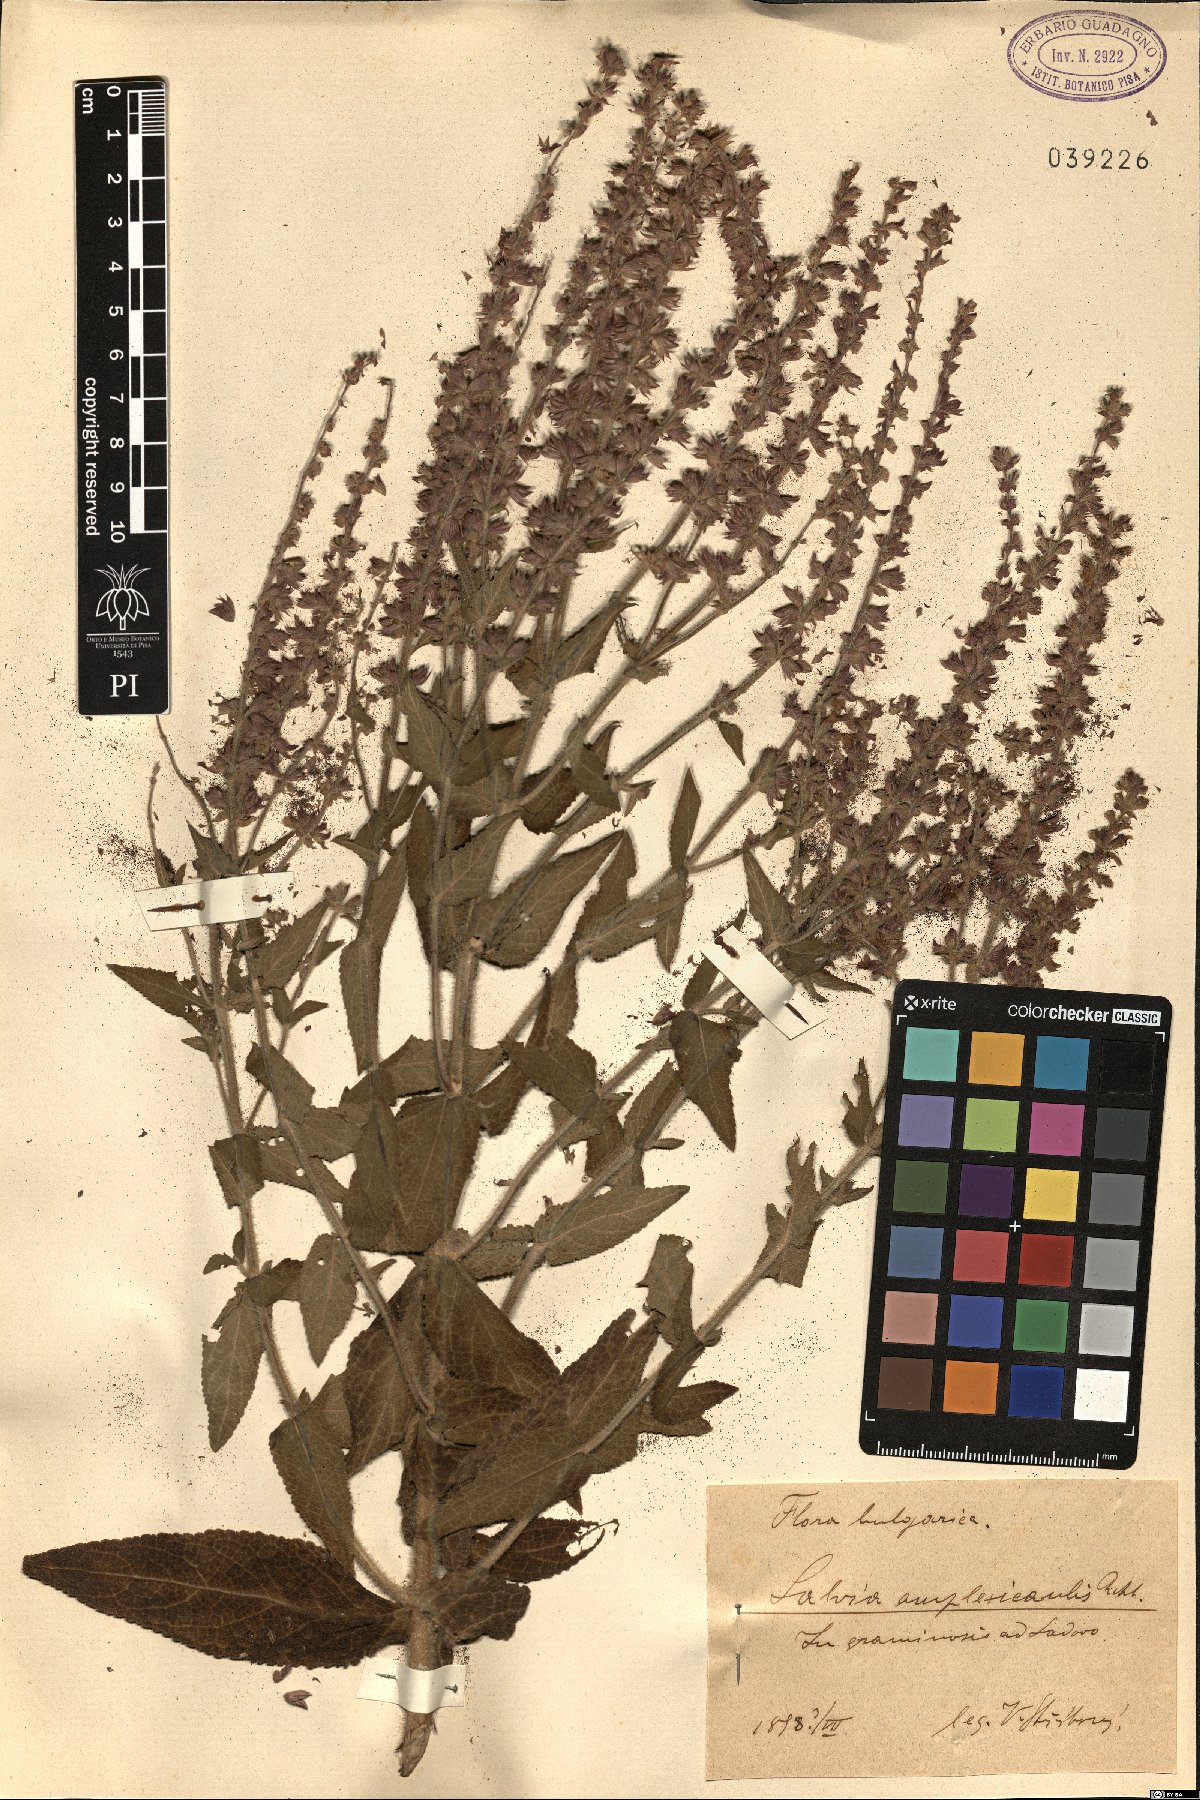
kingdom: Plantae
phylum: Tracheophyta
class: Magnoliopsida
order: Lamiales
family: Lamiaceae
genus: Salvia
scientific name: Salvia amplexicaulis
